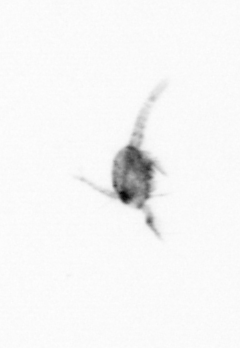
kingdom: Animalia
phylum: Arthropoda
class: Copepoda
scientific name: Copepoda
